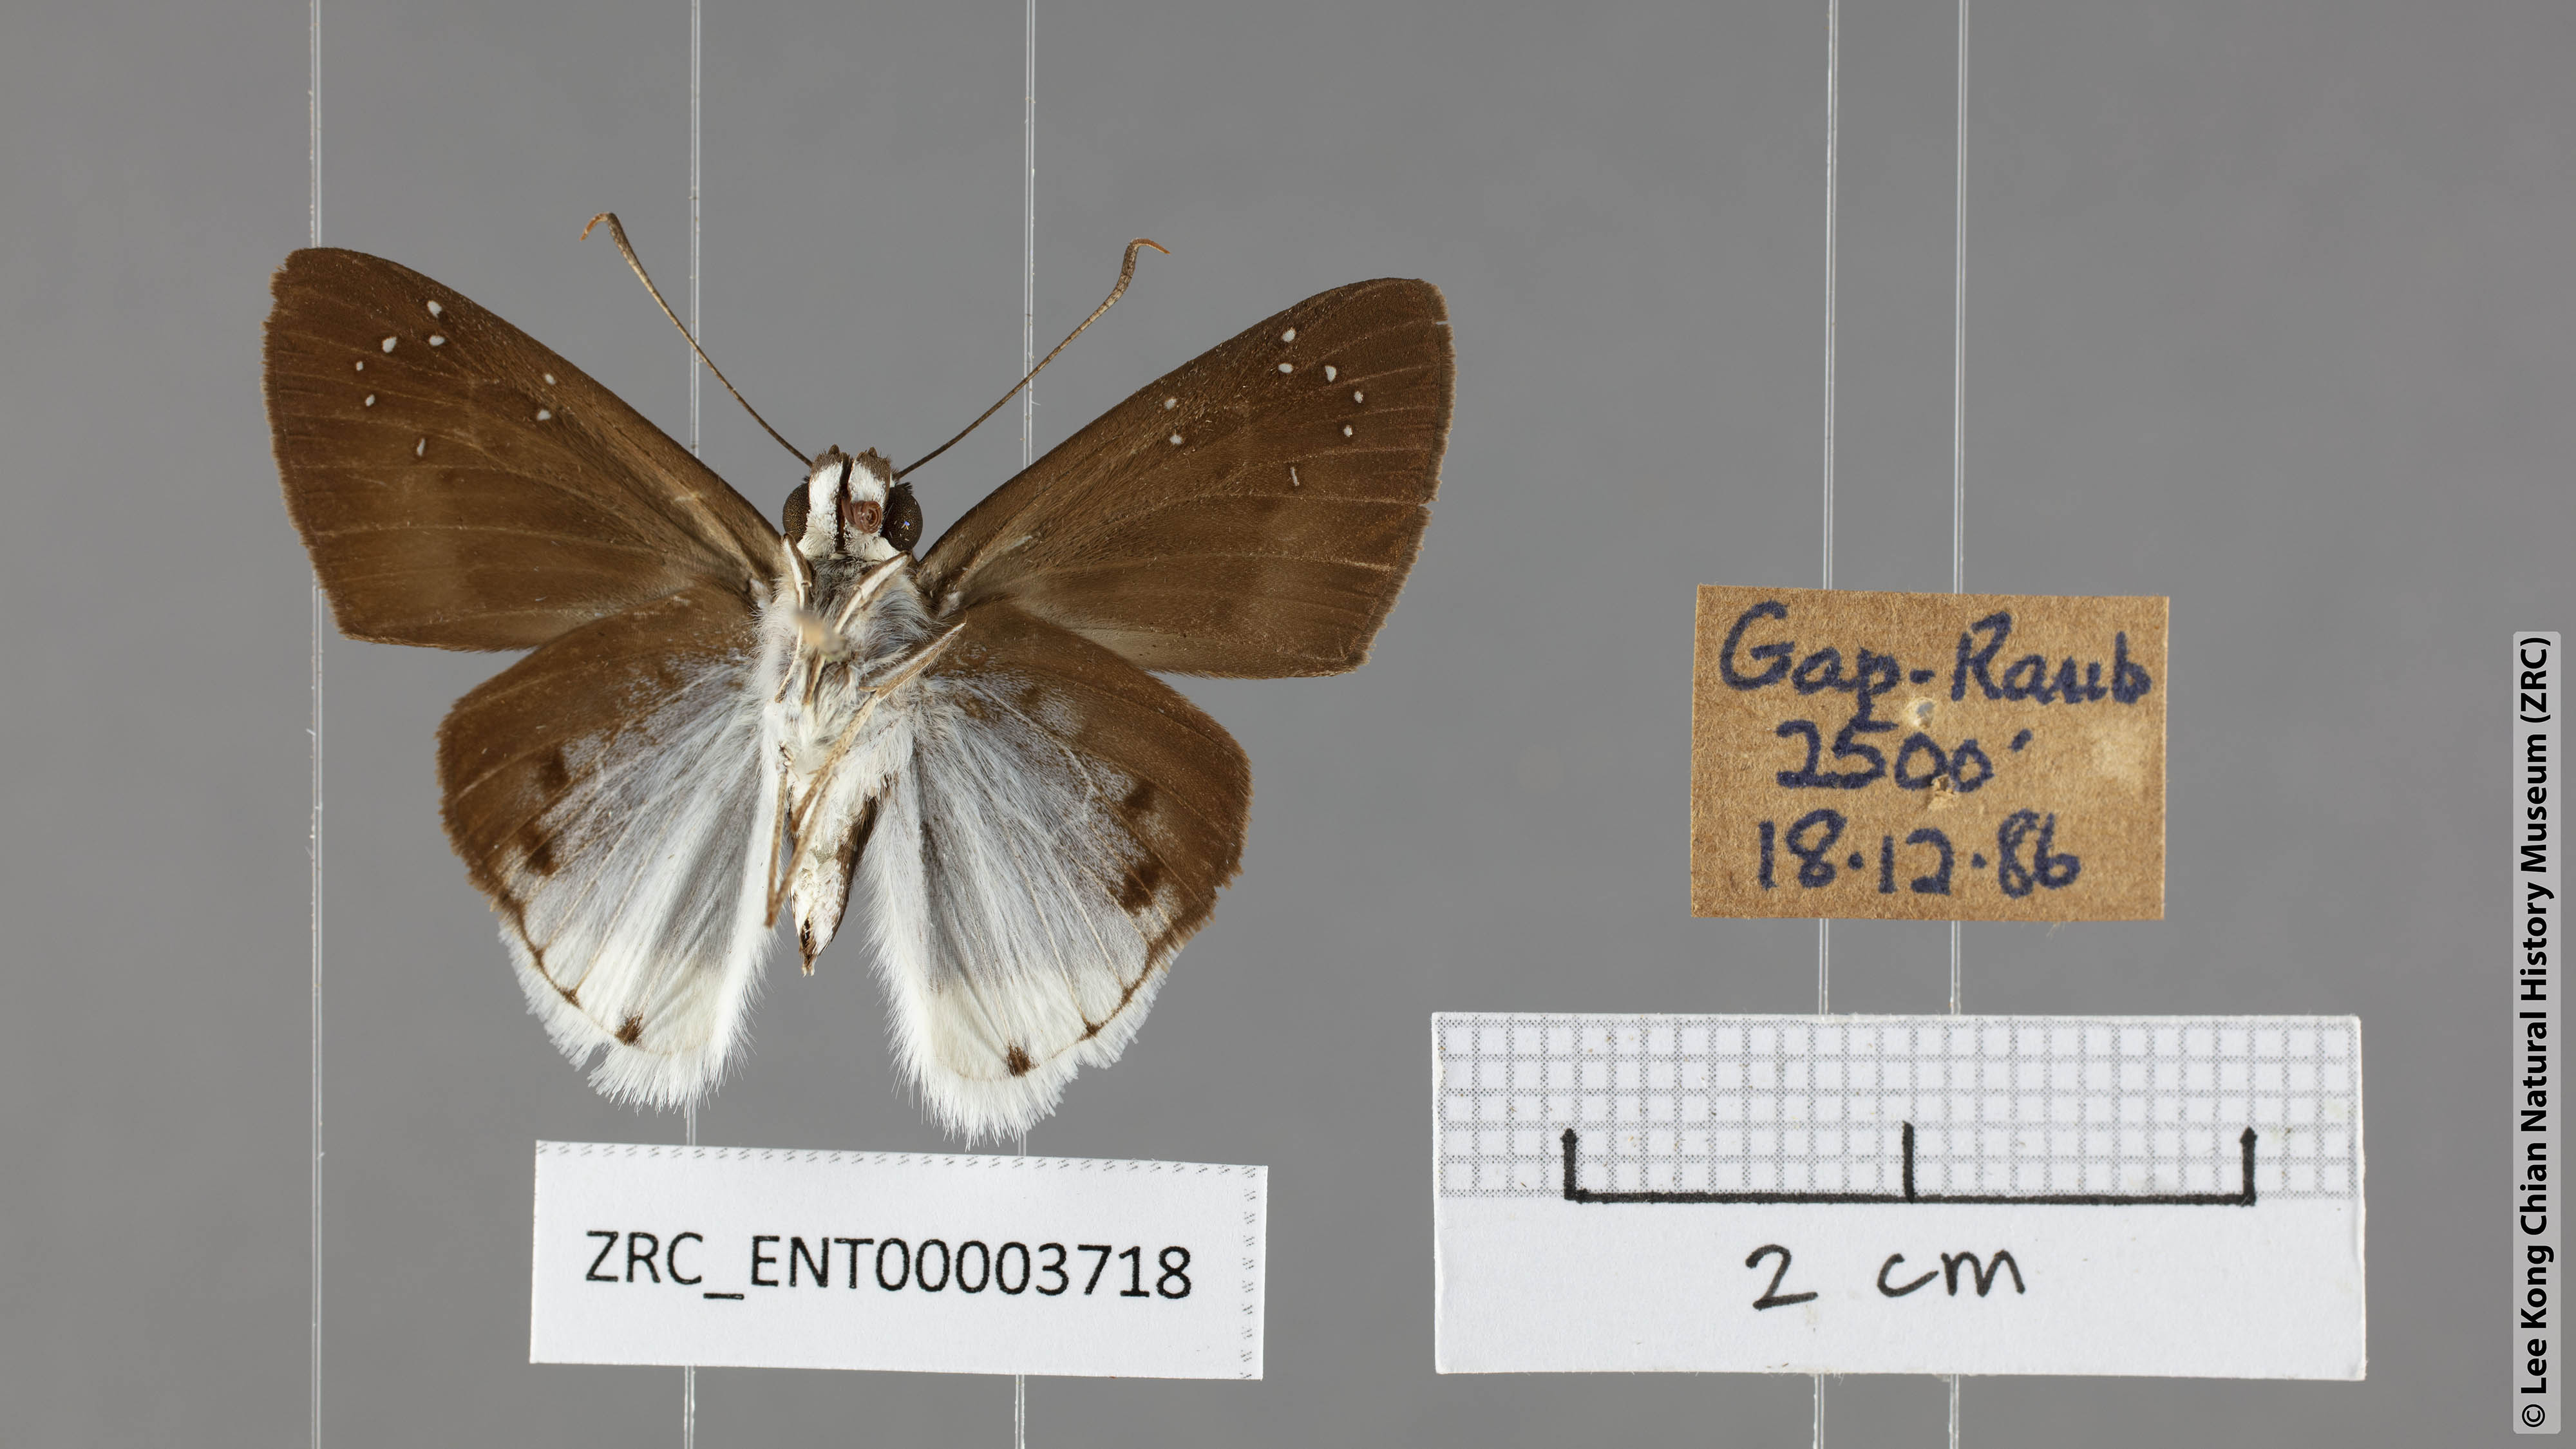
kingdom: Animalia
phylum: Arthropoda
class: Insecta
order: Lepidoptera
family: Hesperiidae
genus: Tagiades
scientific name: Tagiades toba
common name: Different-spotted snow flat
